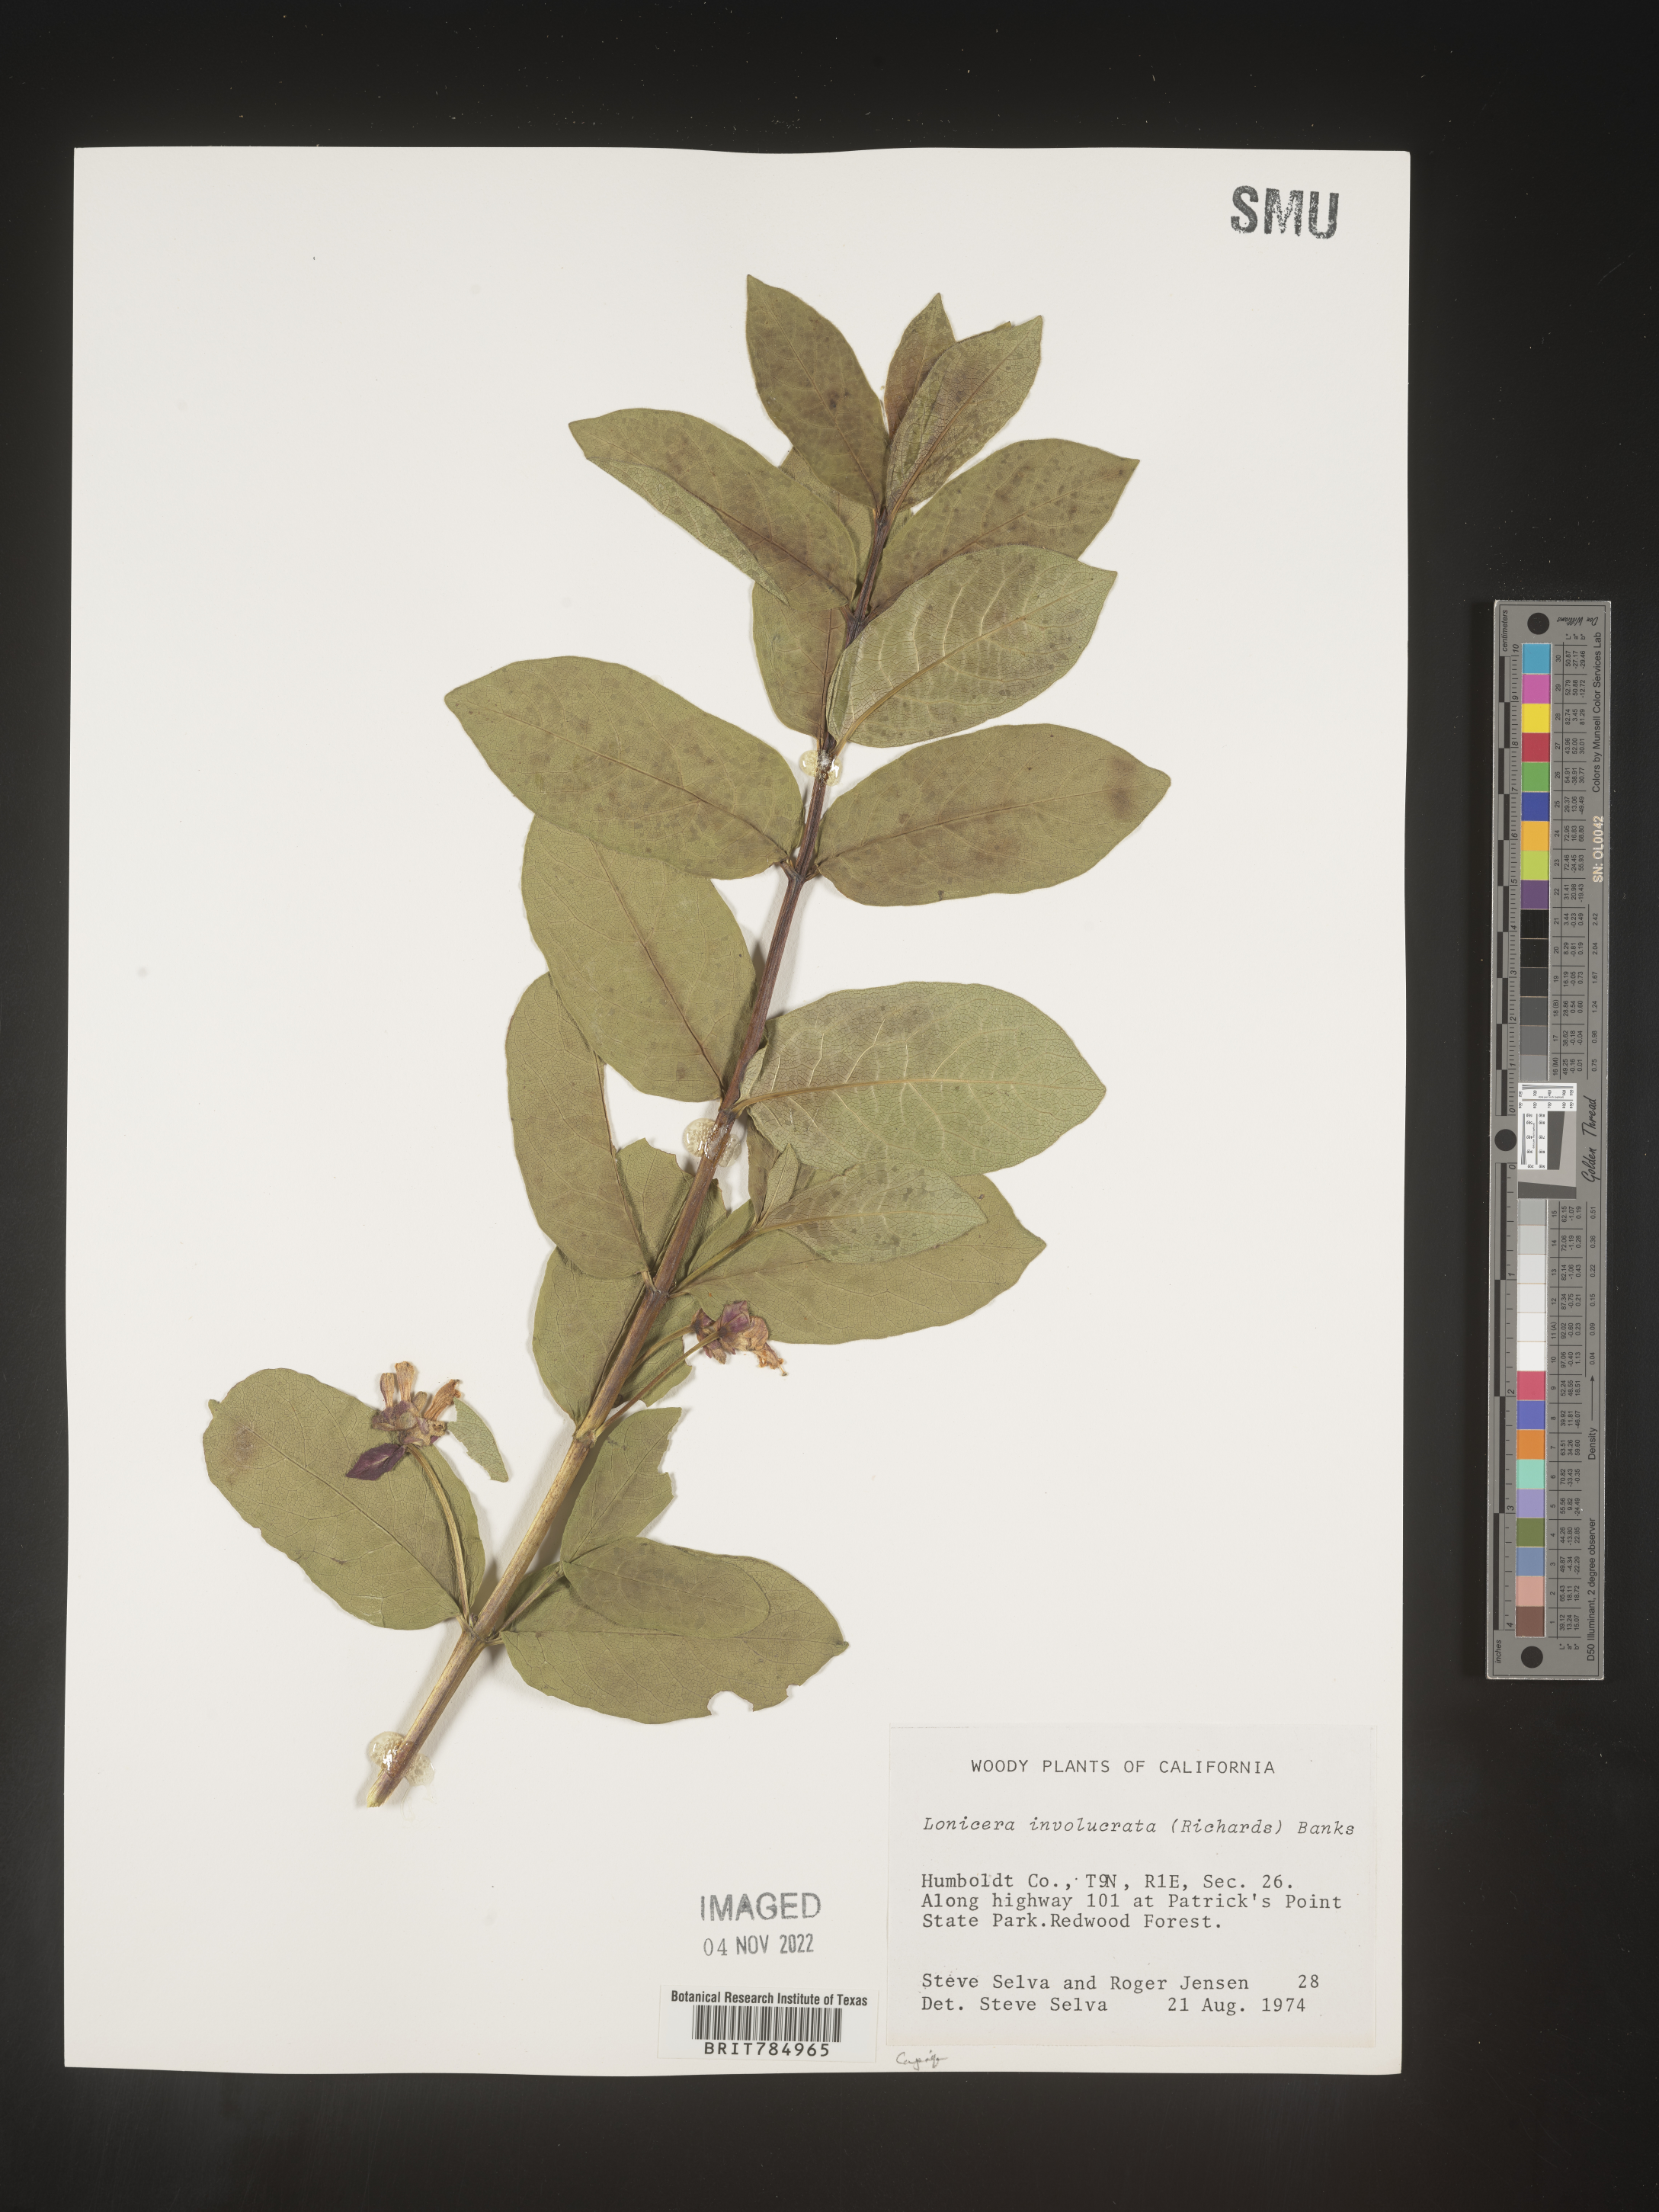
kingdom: Plantae
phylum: Tracheophyta
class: Magnoliopsida
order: Dipsacales
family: Caprifoliaceae
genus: Lonicera
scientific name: Lonicera involucrata
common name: Californian honeysuckle
